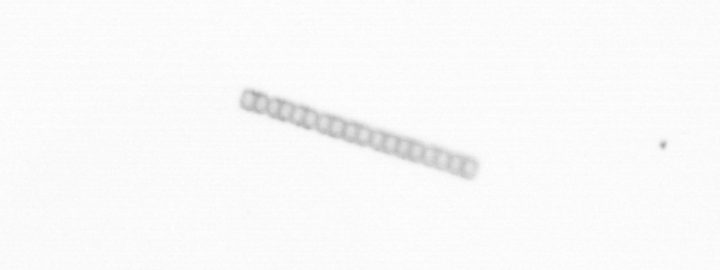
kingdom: Chromista
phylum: Ochrophyta
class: Bacillariophyceae
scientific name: Bacillariophyceae
